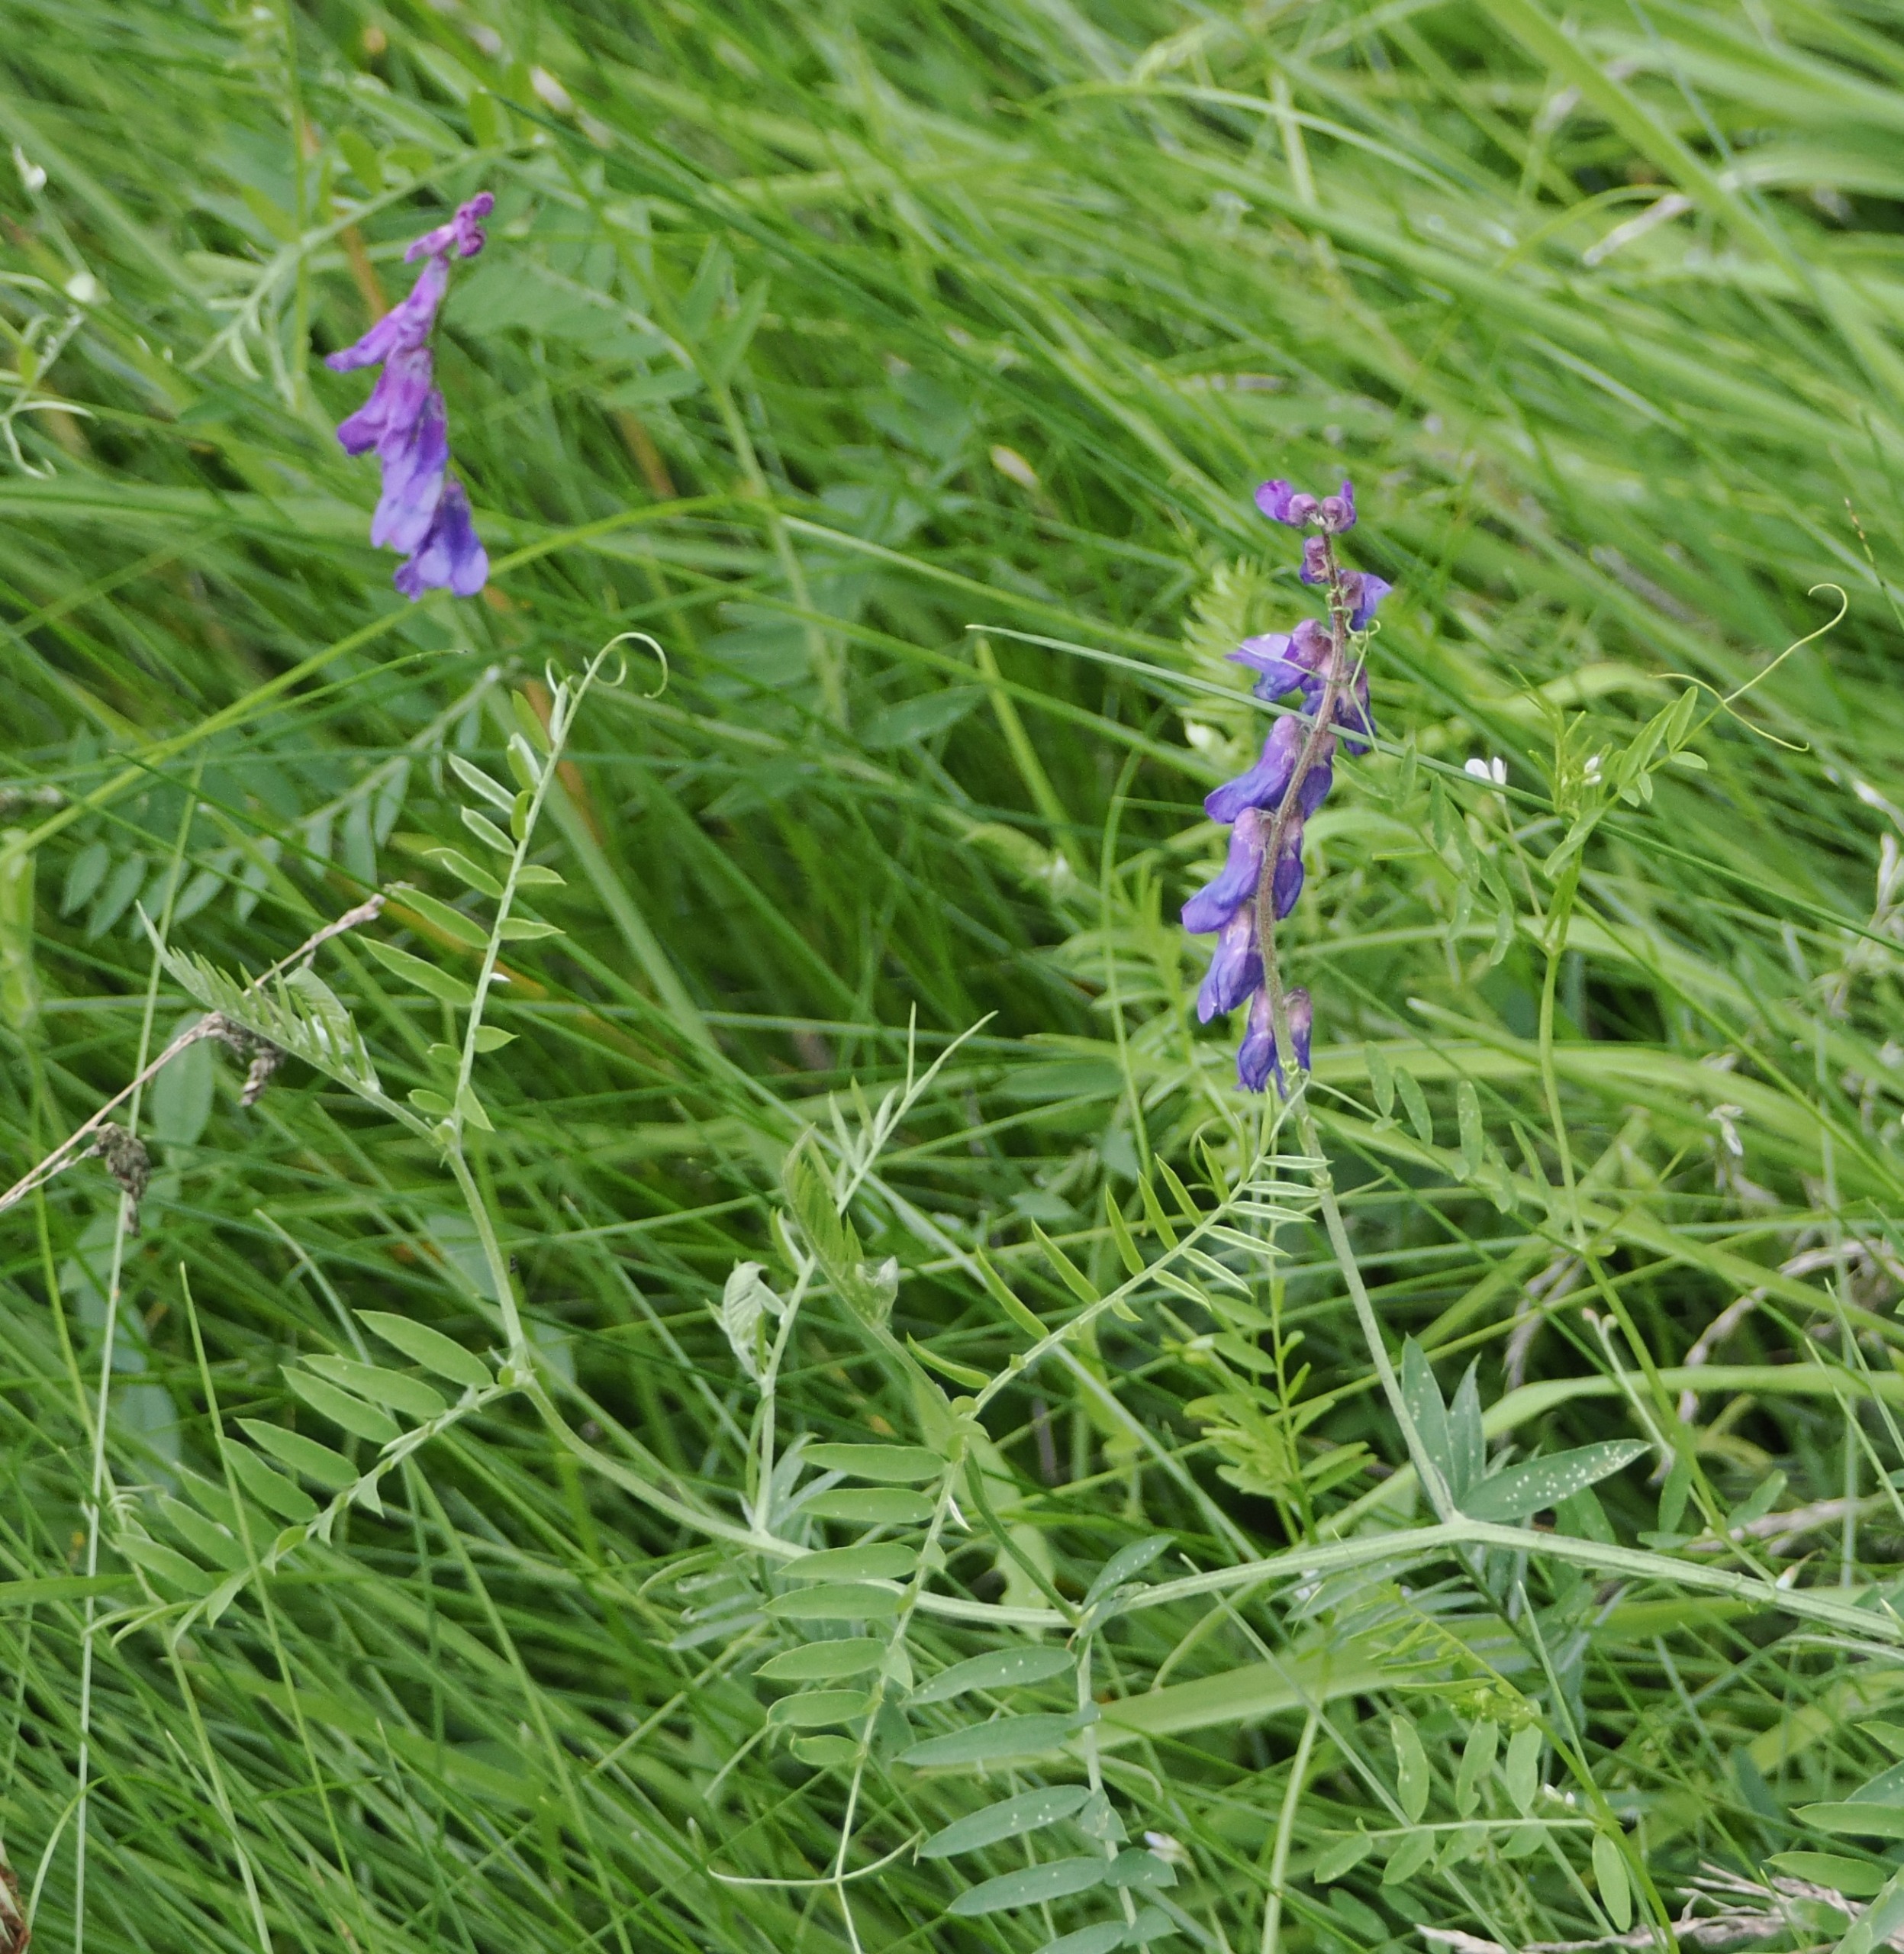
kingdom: Plantae
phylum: Tracheophyta
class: Magnoliopsida
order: Fabales
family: Fabaceae
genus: Vicia
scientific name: Vicia cracca
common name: Muse-vikke
